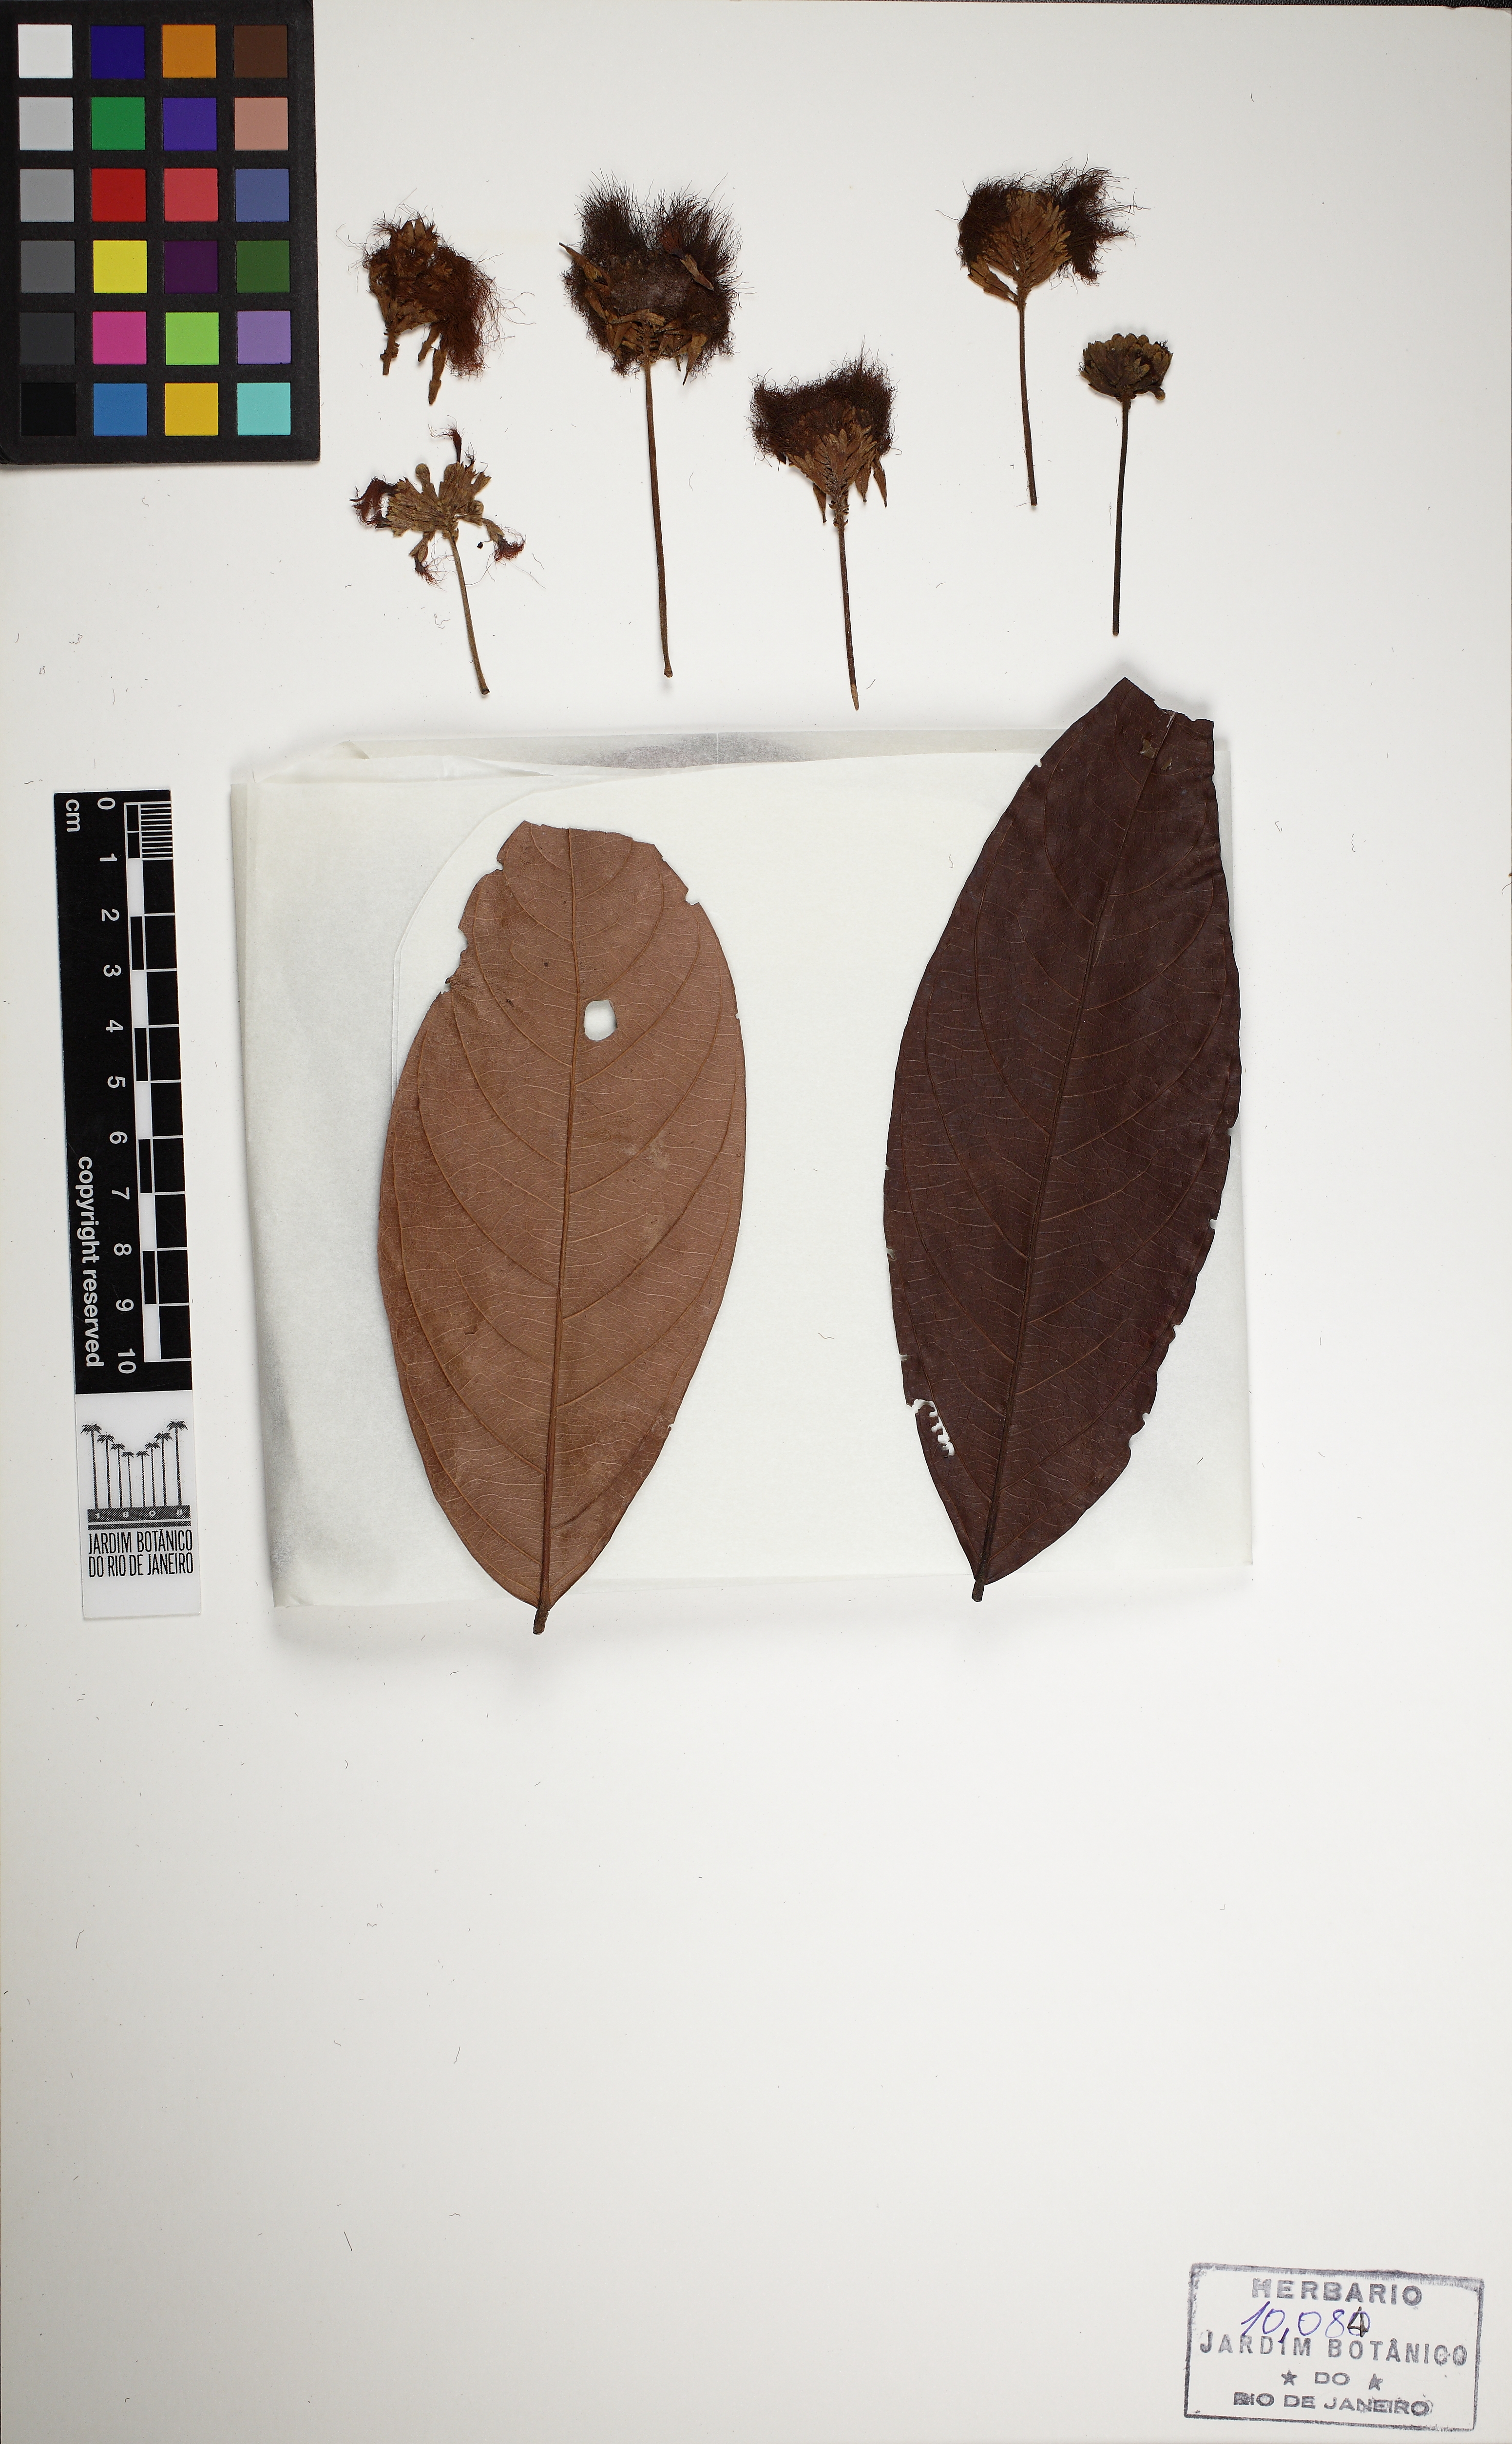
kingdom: Plantae
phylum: Tracheophyta
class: Magnoliopsida
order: Fabales
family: Fabaceae
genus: Inga
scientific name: Inga nobilis
